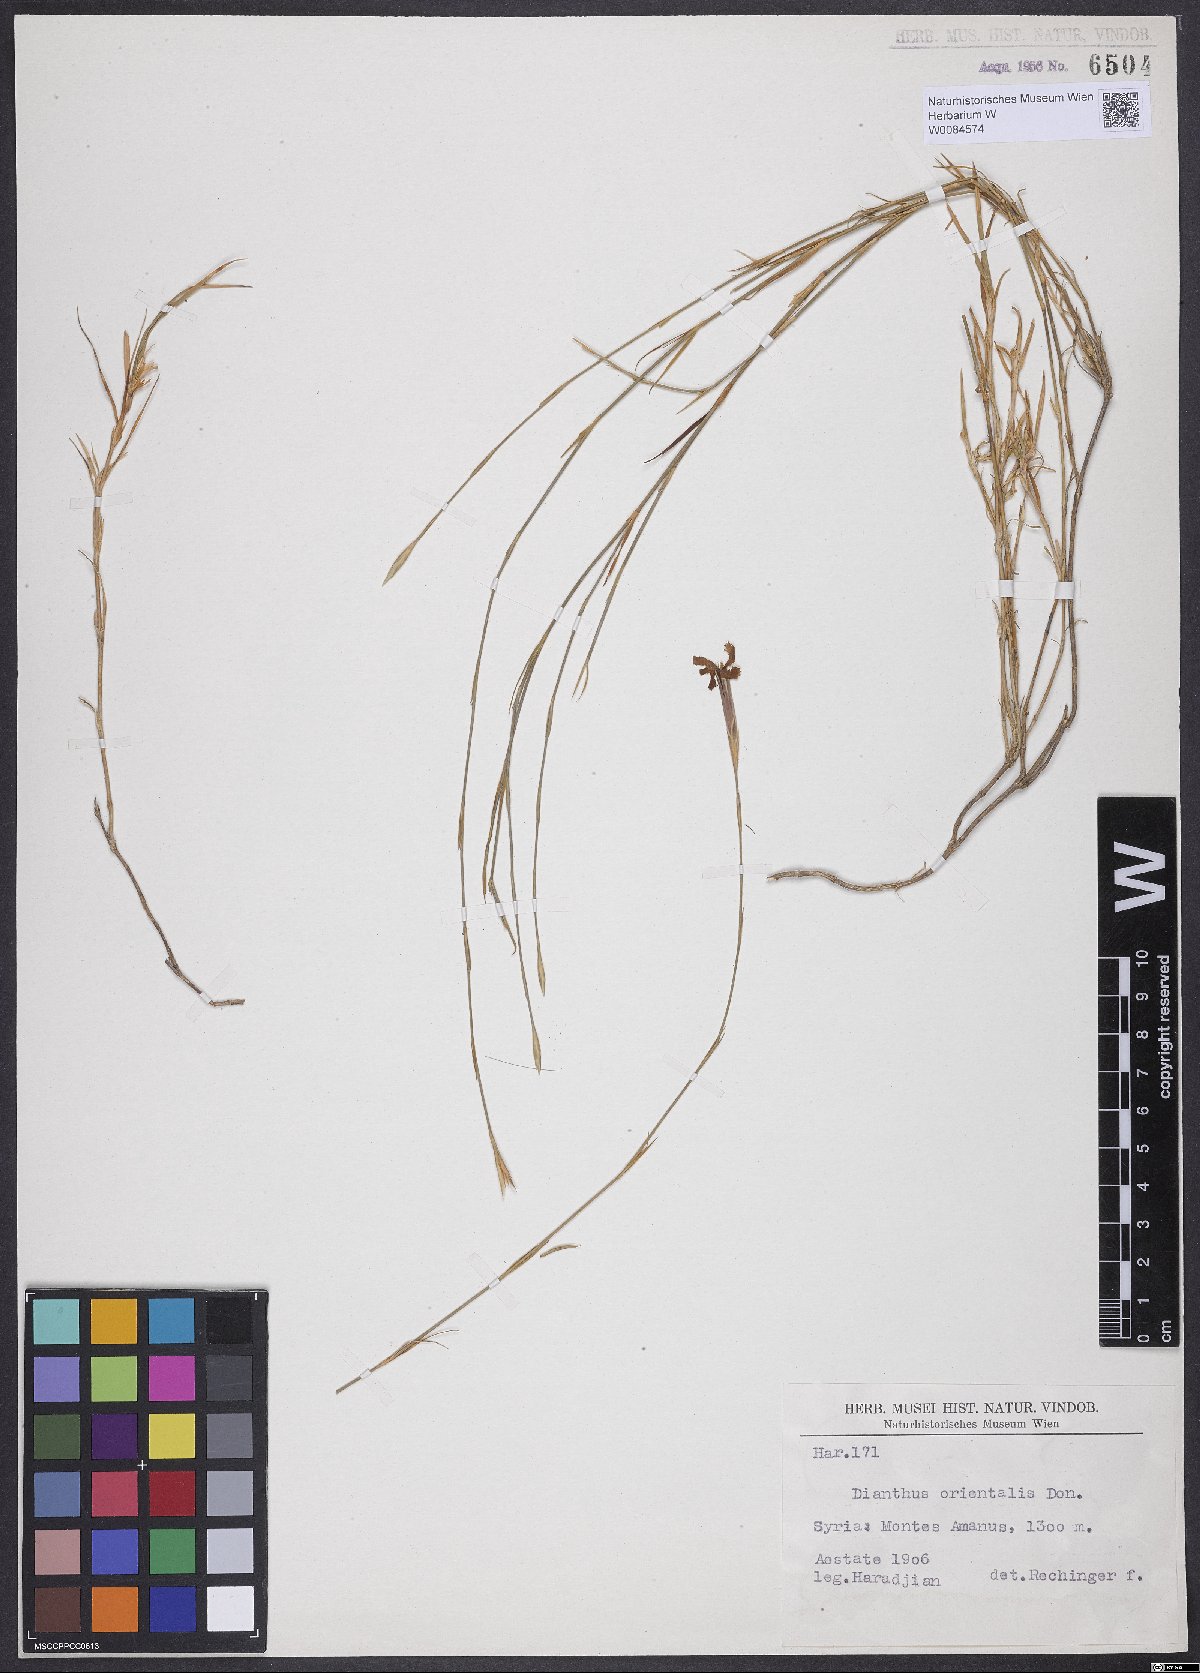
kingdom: Plantae
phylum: Tracheophyta
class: Magnoliopsida
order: Caryophyllales
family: Caryophyllaceae
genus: Dianthus
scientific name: Dianthus orientalis
